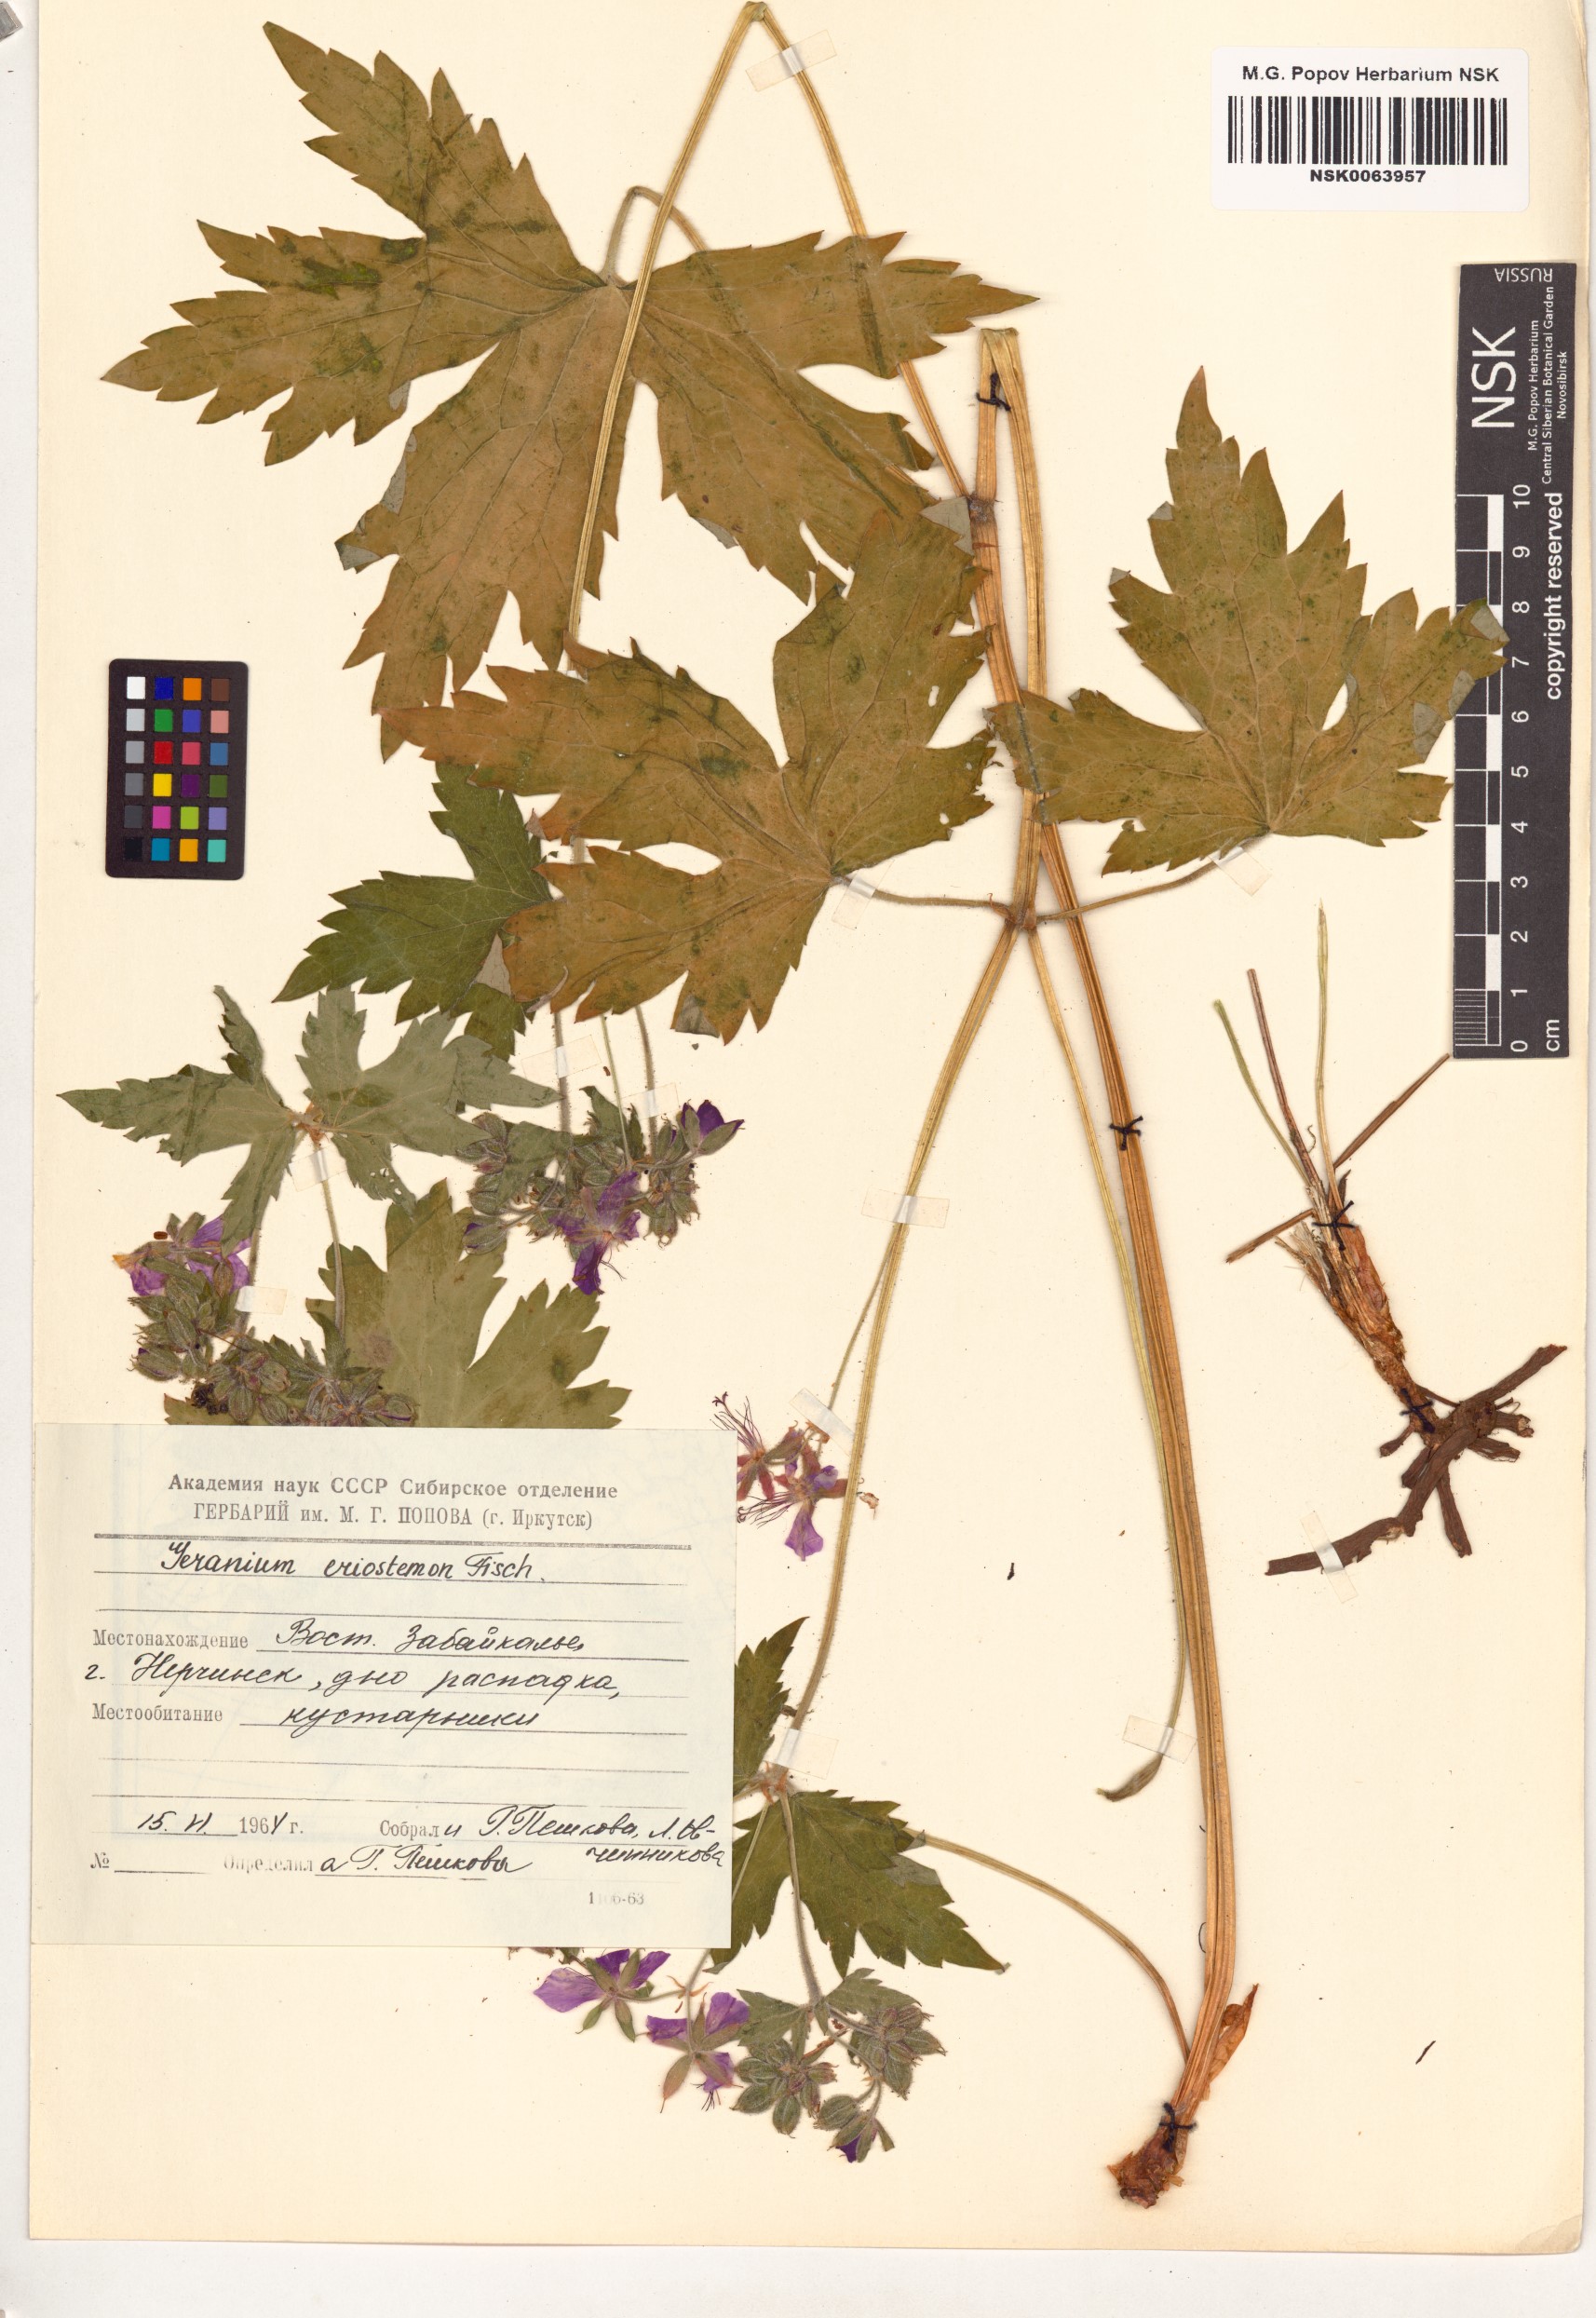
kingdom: Plantae
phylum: Tracheophyta
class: Magnoliopsida
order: Geraniales
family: Geraniaceae
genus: Geranium
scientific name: Geranium platyanthum
